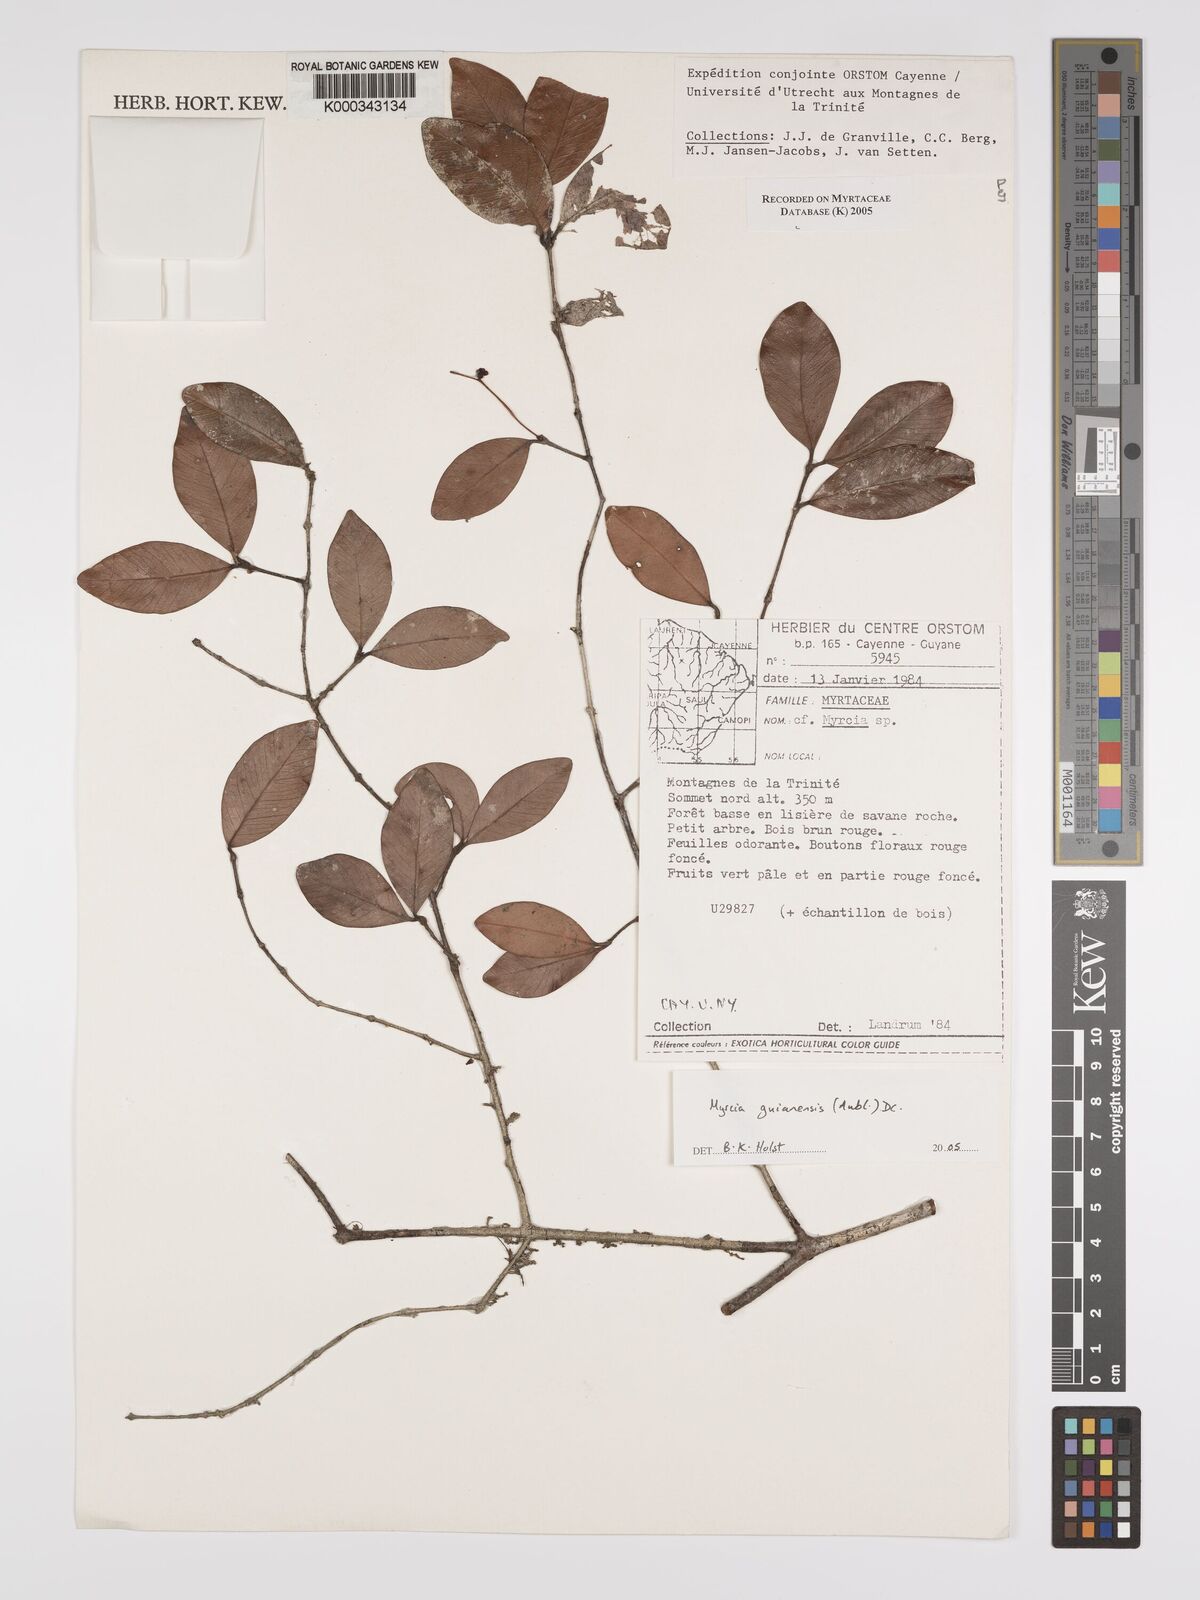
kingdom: Plantae
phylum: Tracheophyta
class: Magnoliopsida
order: Myrtales
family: Myrtaceae
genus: Myrcia
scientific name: Myrcia guianensis
